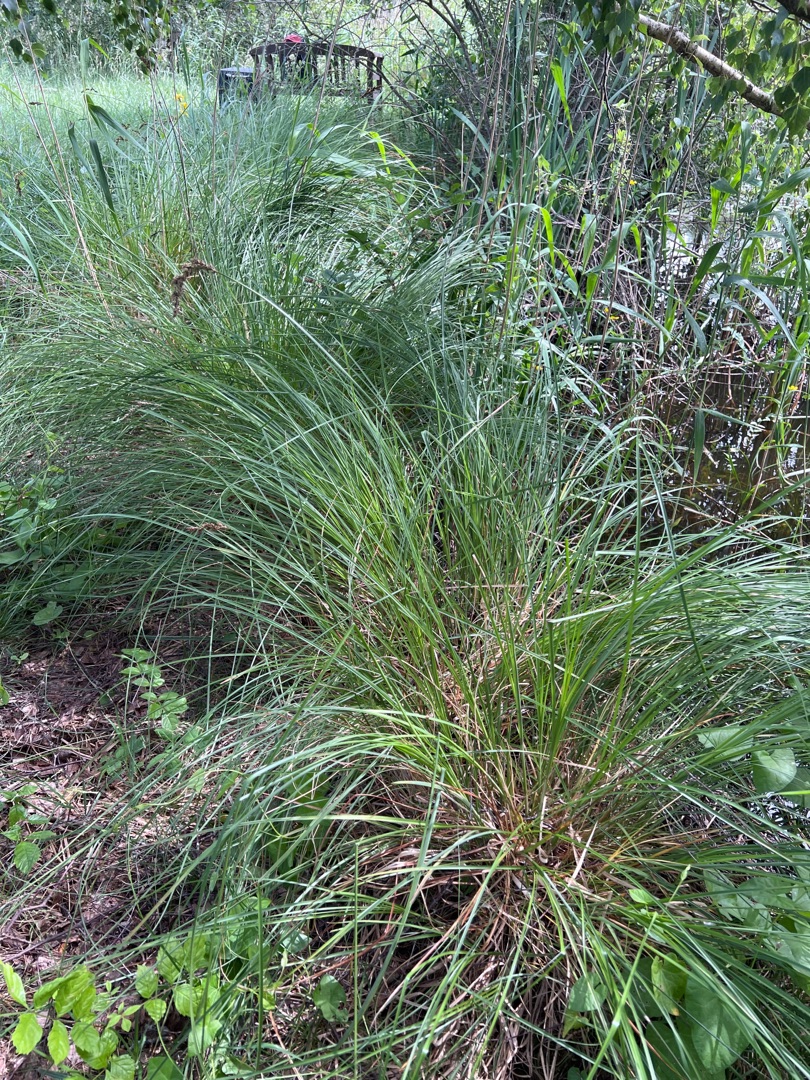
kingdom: Plantae
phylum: Tracheophyta
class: Liliopsida
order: Poales
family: Cyperaceae
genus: Carex
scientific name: Carex paniculata
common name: Top-star
